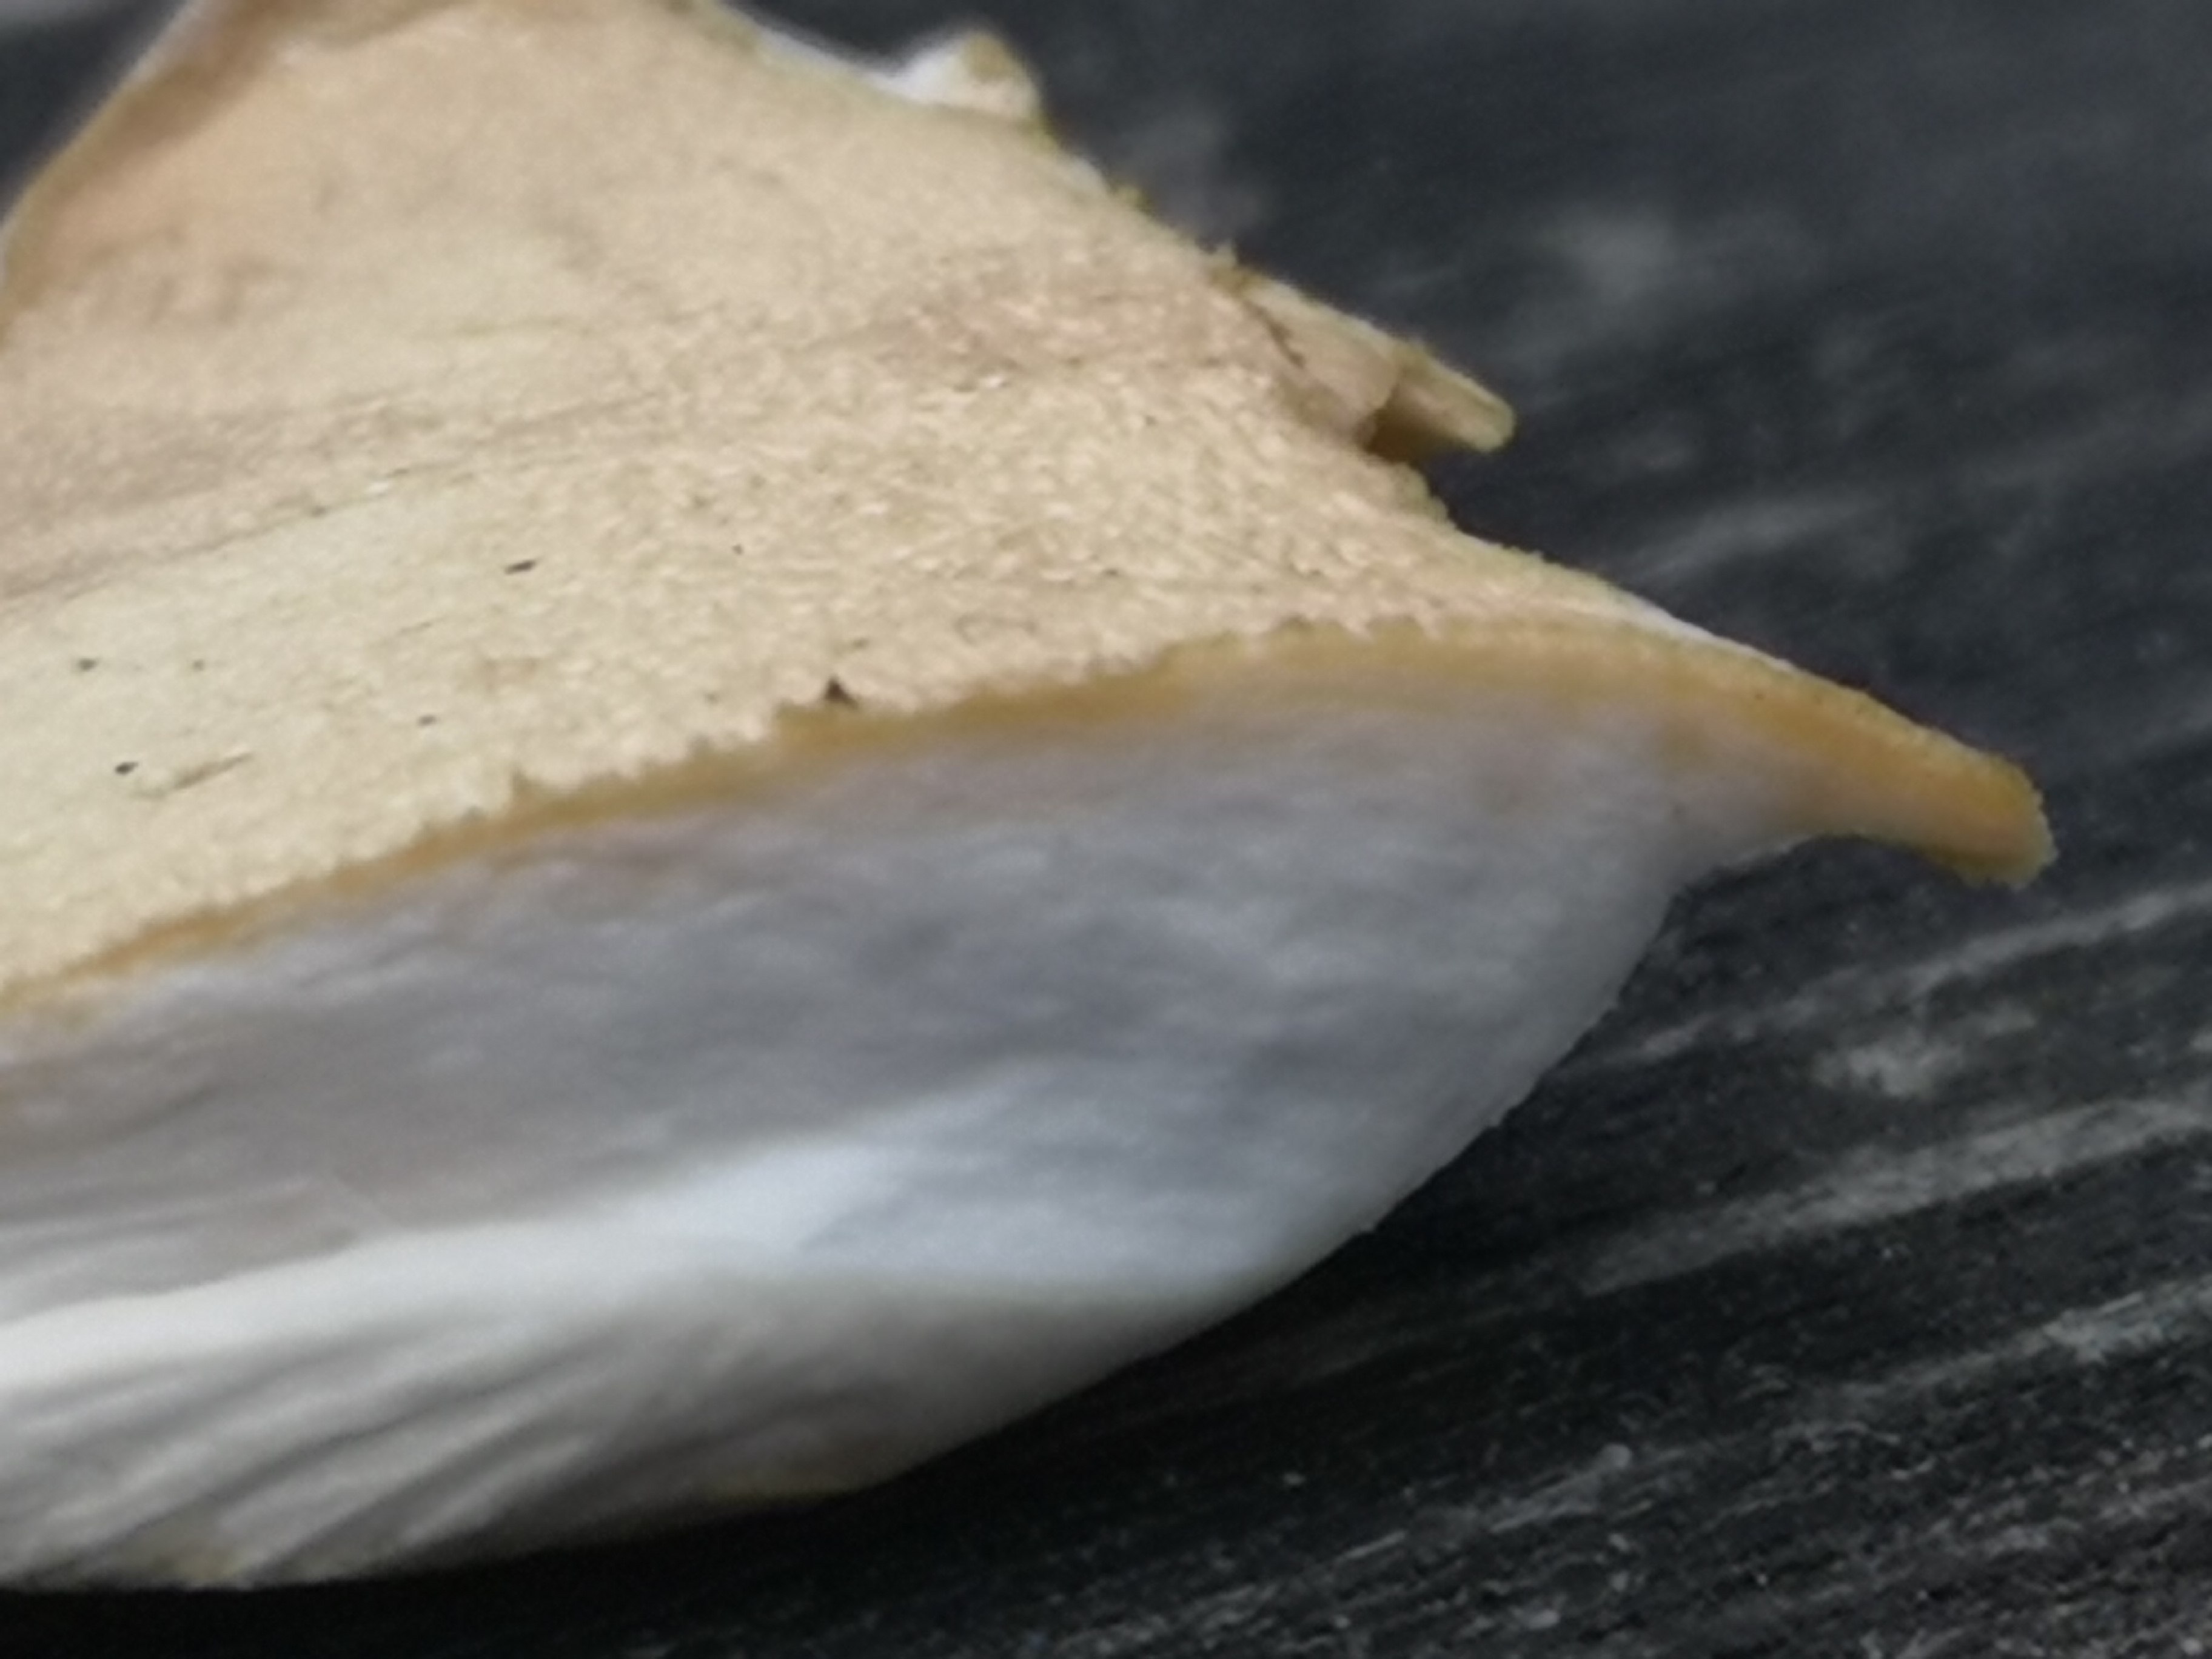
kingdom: Fungi
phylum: Basidiomycota
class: Agaricomycetes
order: Polyporales
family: Polyporaceae
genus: Cerioporus
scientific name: Cerioporus varius
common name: foranderlig stilkporesvamp
